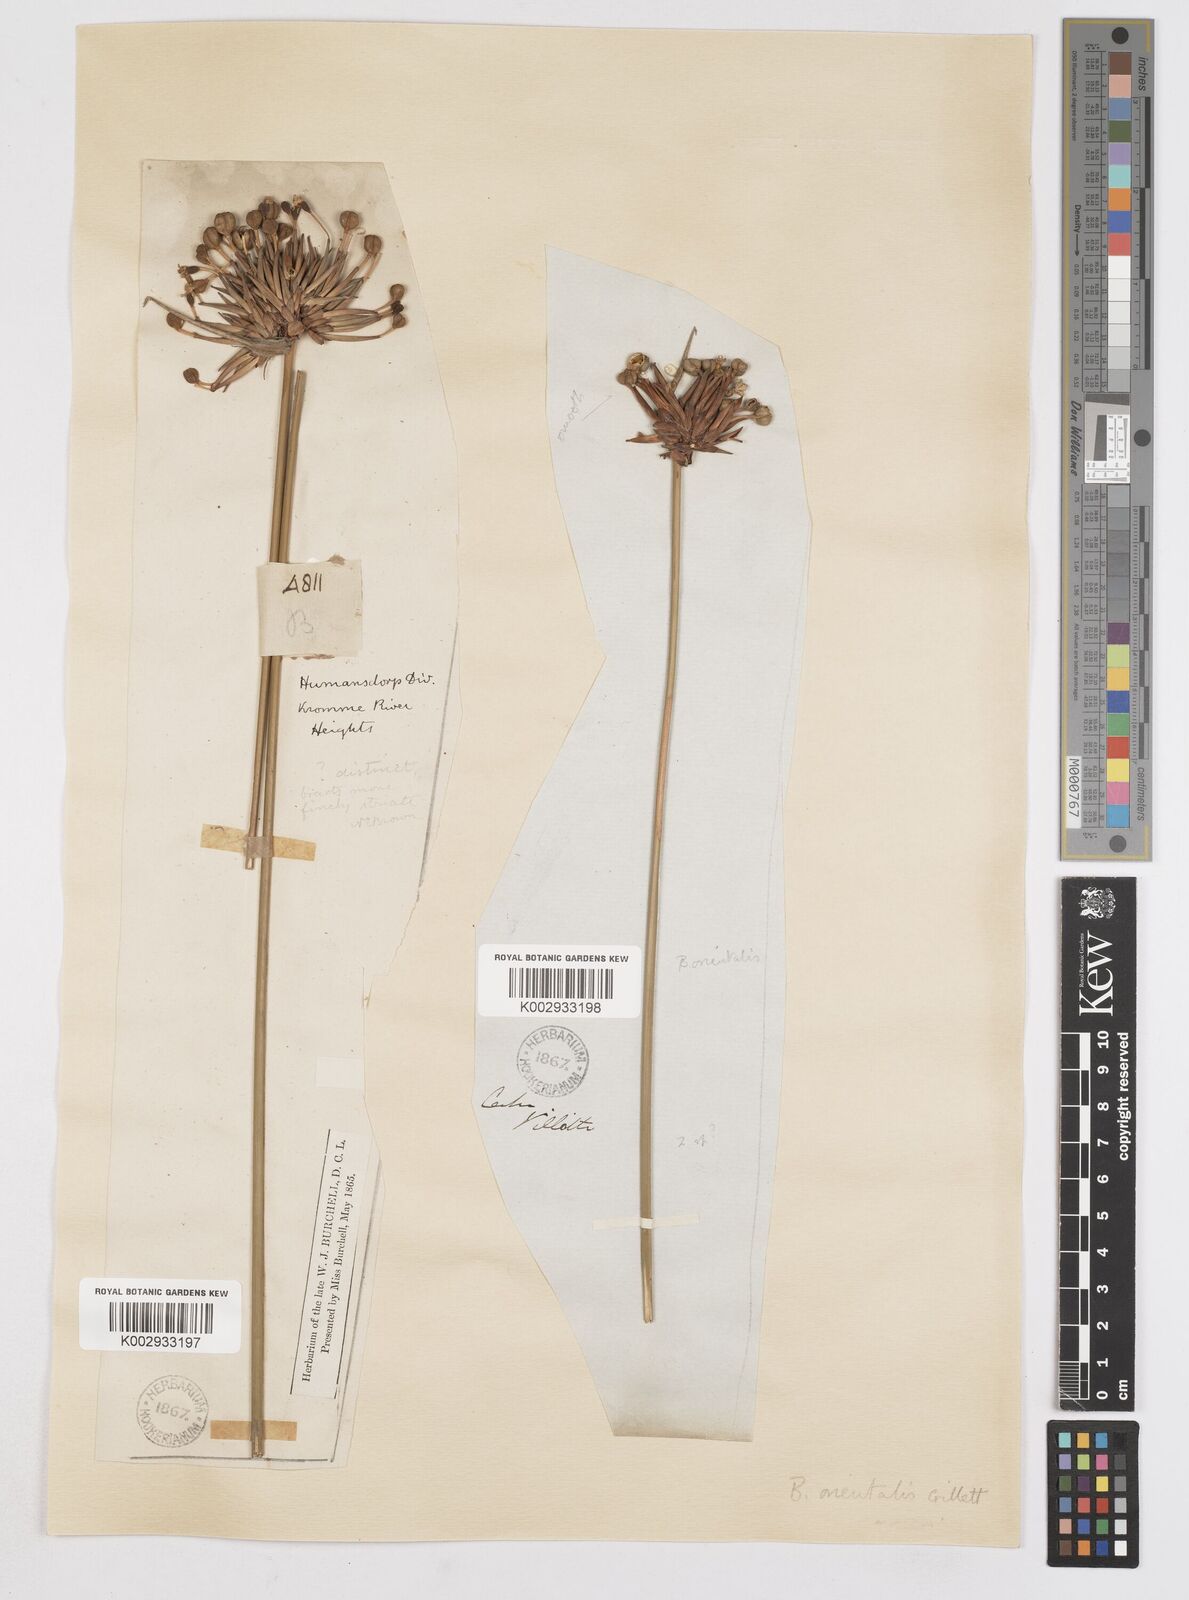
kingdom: Plantae
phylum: Tracheophyta
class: Liliopsida
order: Asparagales
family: Iridaceae
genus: Bobartia
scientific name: Bobartia orientalis
